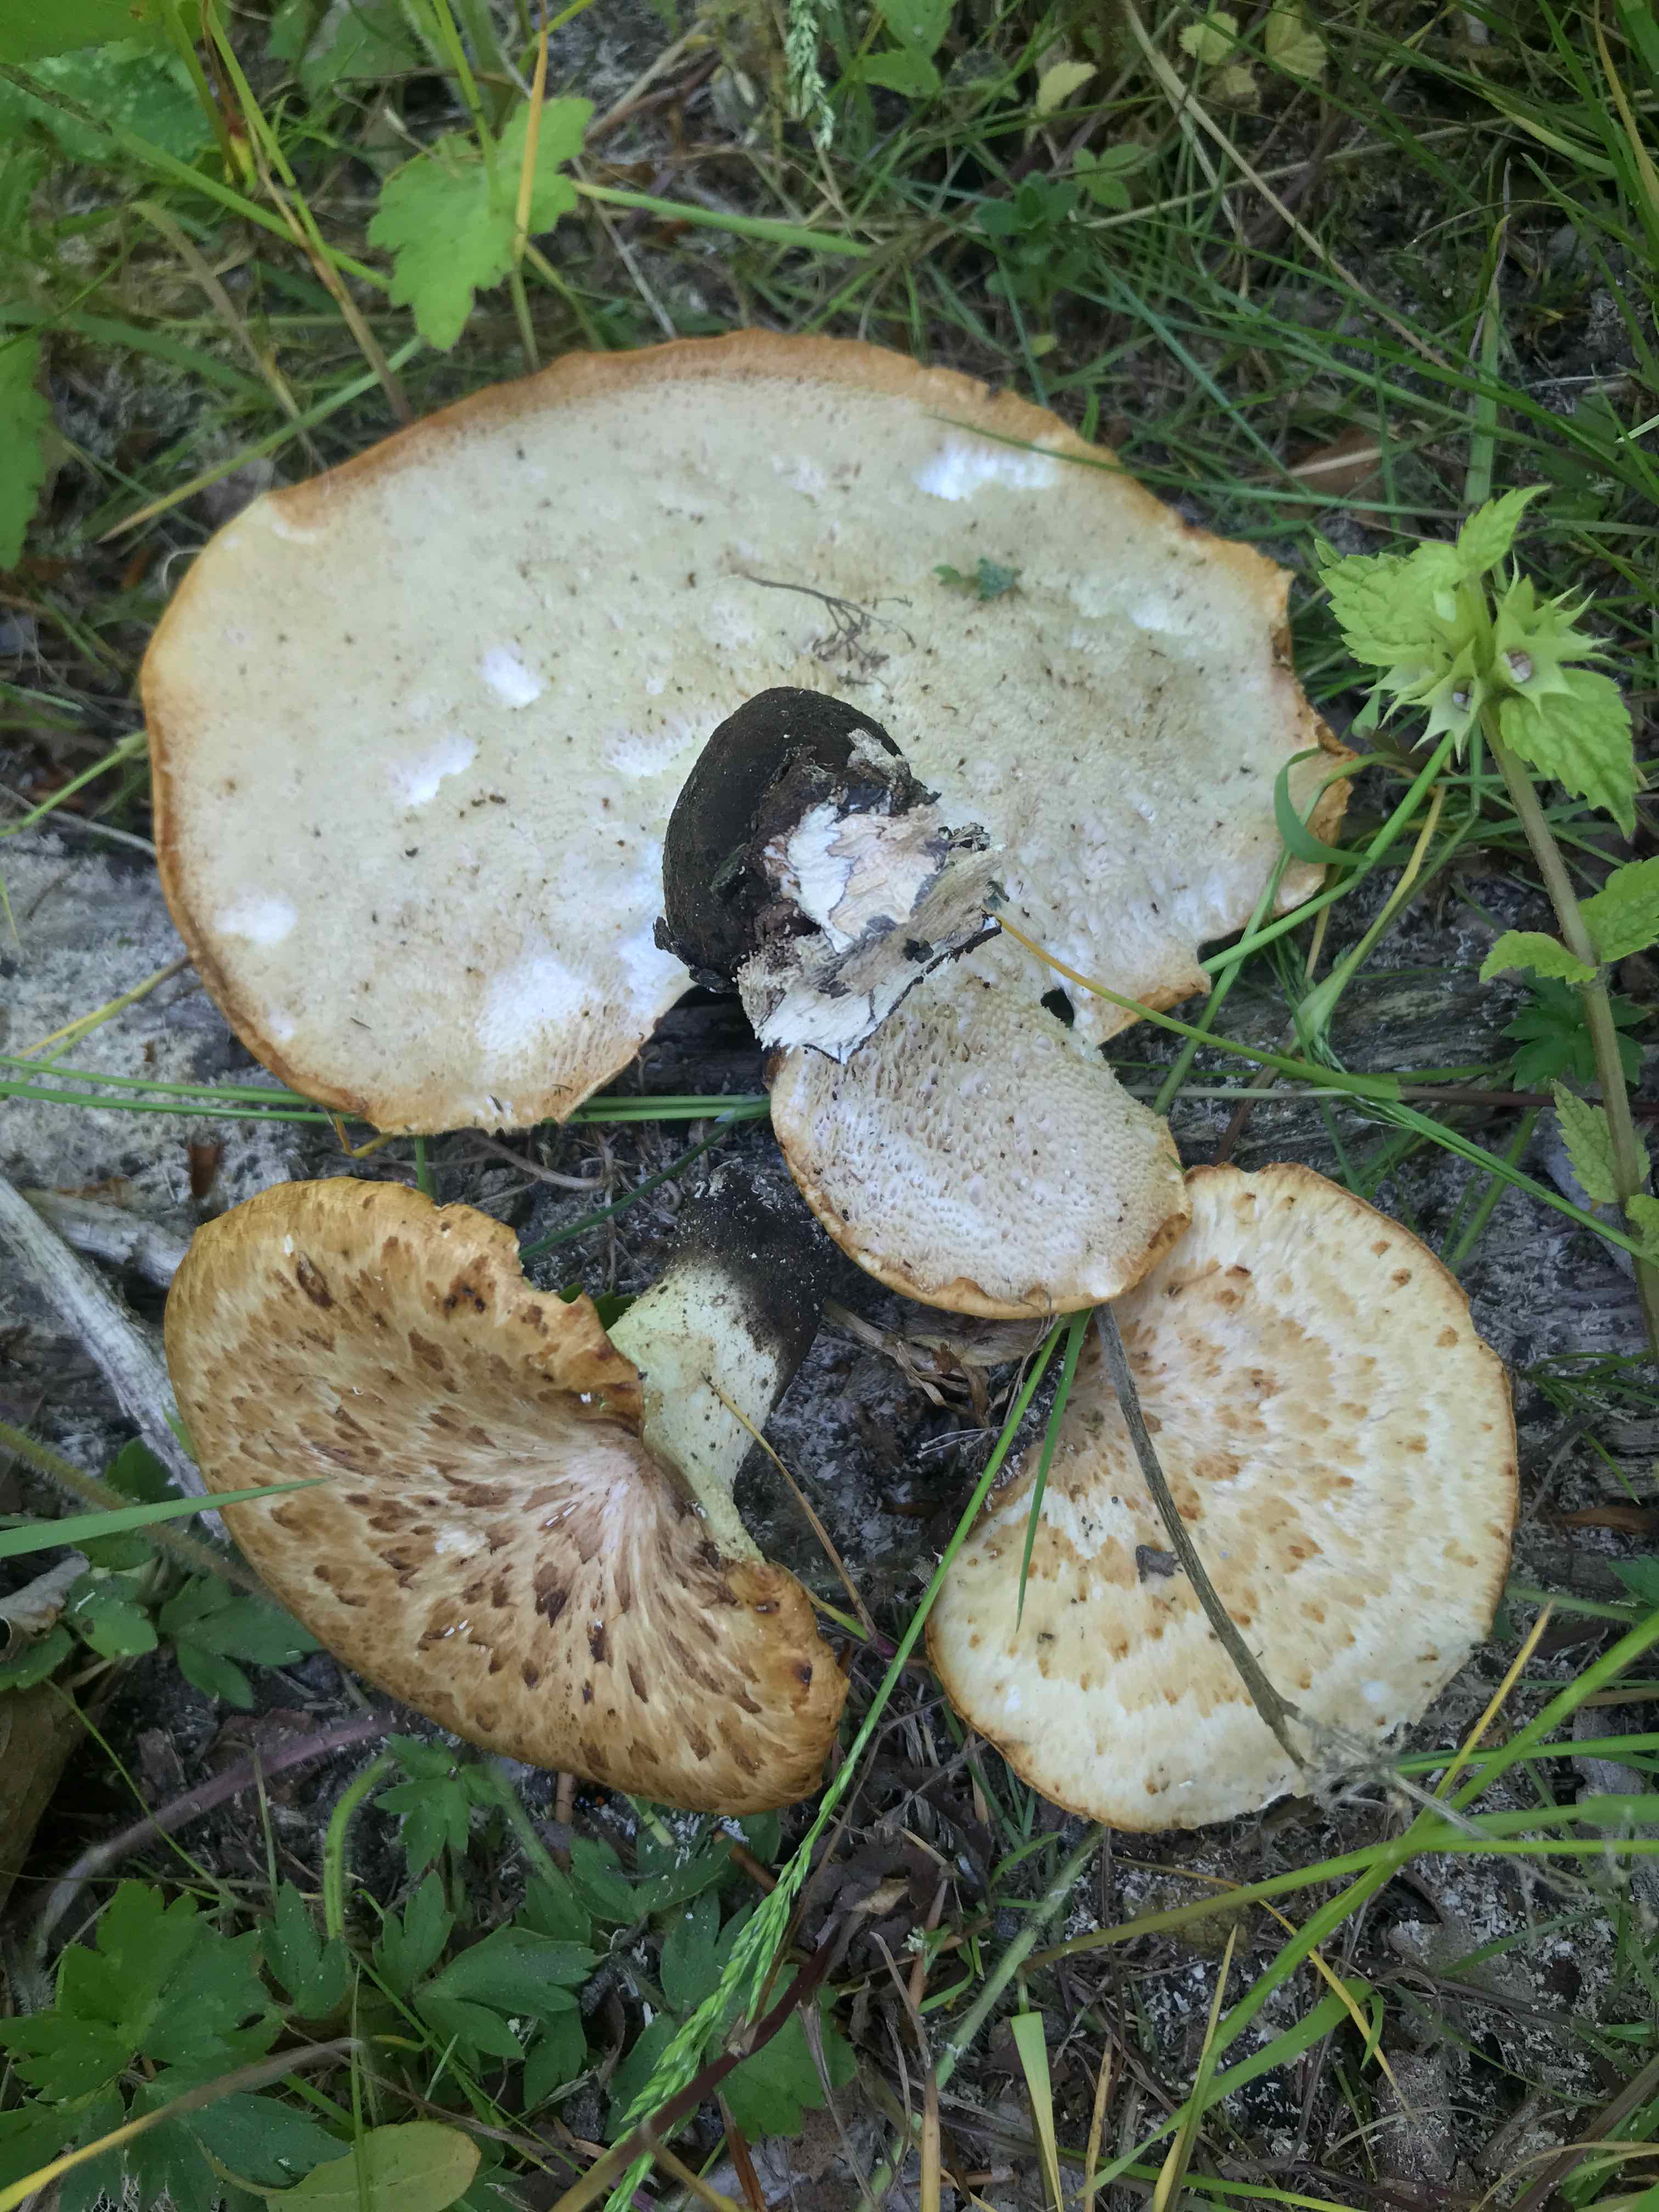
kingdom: Fungi
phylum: Basidiomycota
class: Agaricomycetes
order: Polyporales
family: Polyporaceae
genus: Cerioporus
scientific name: Cerioporus squamosus
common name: skællet stilkporesvamp
